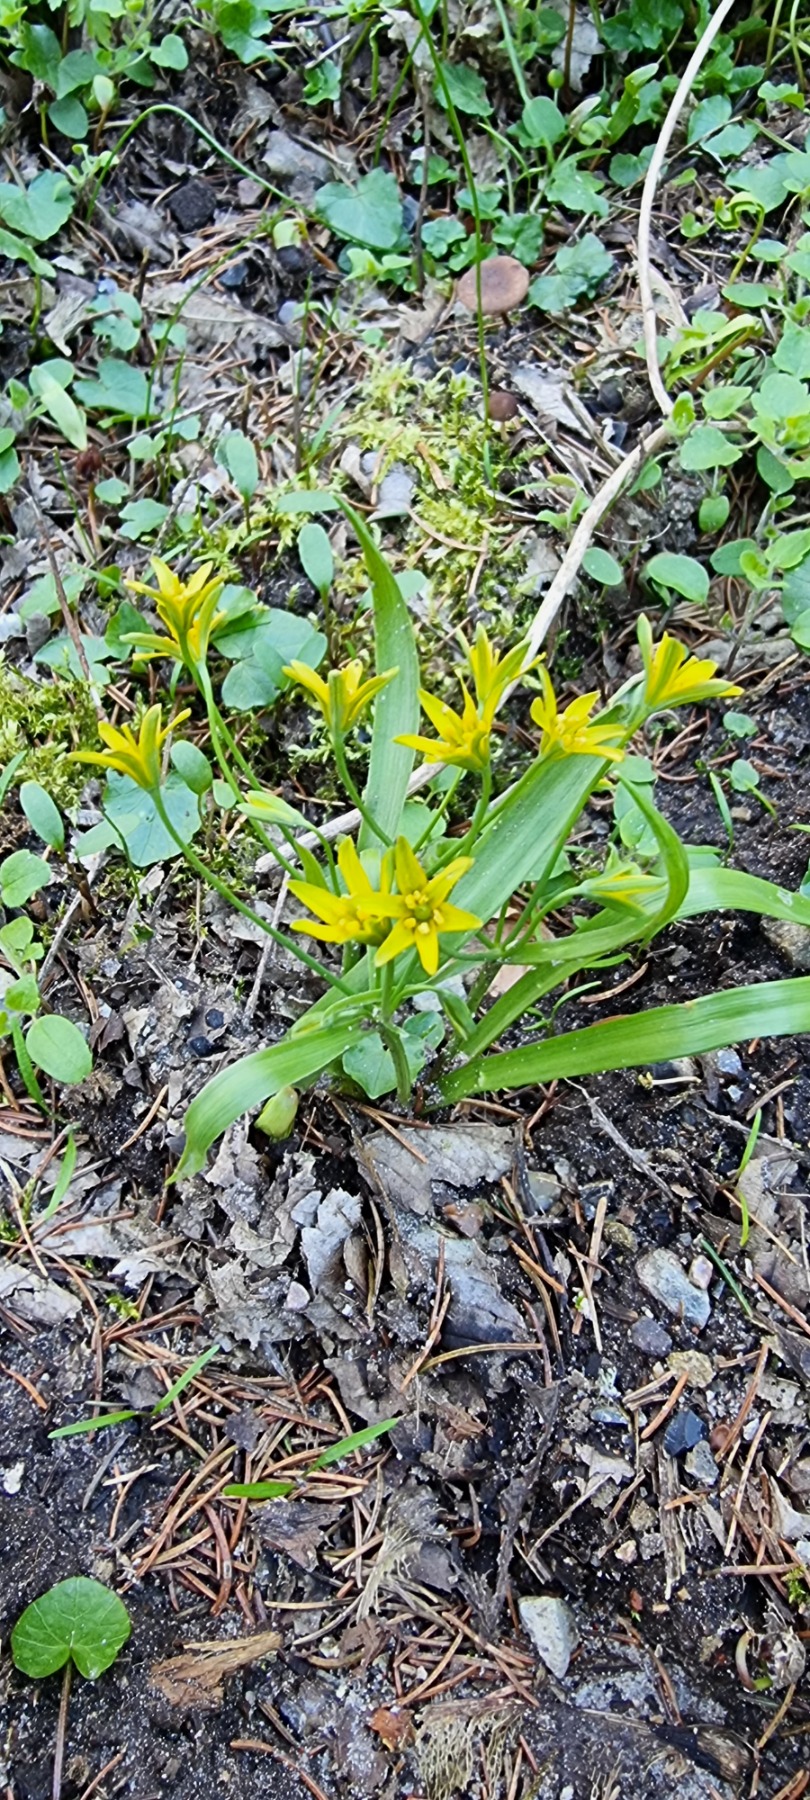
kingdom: Plantae
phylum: Tracheophyta
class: Liliopsida
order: Liliales
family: Liliaceae
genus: Gagea
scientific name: Gagea lutea
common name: Almindelig guldstjerne
